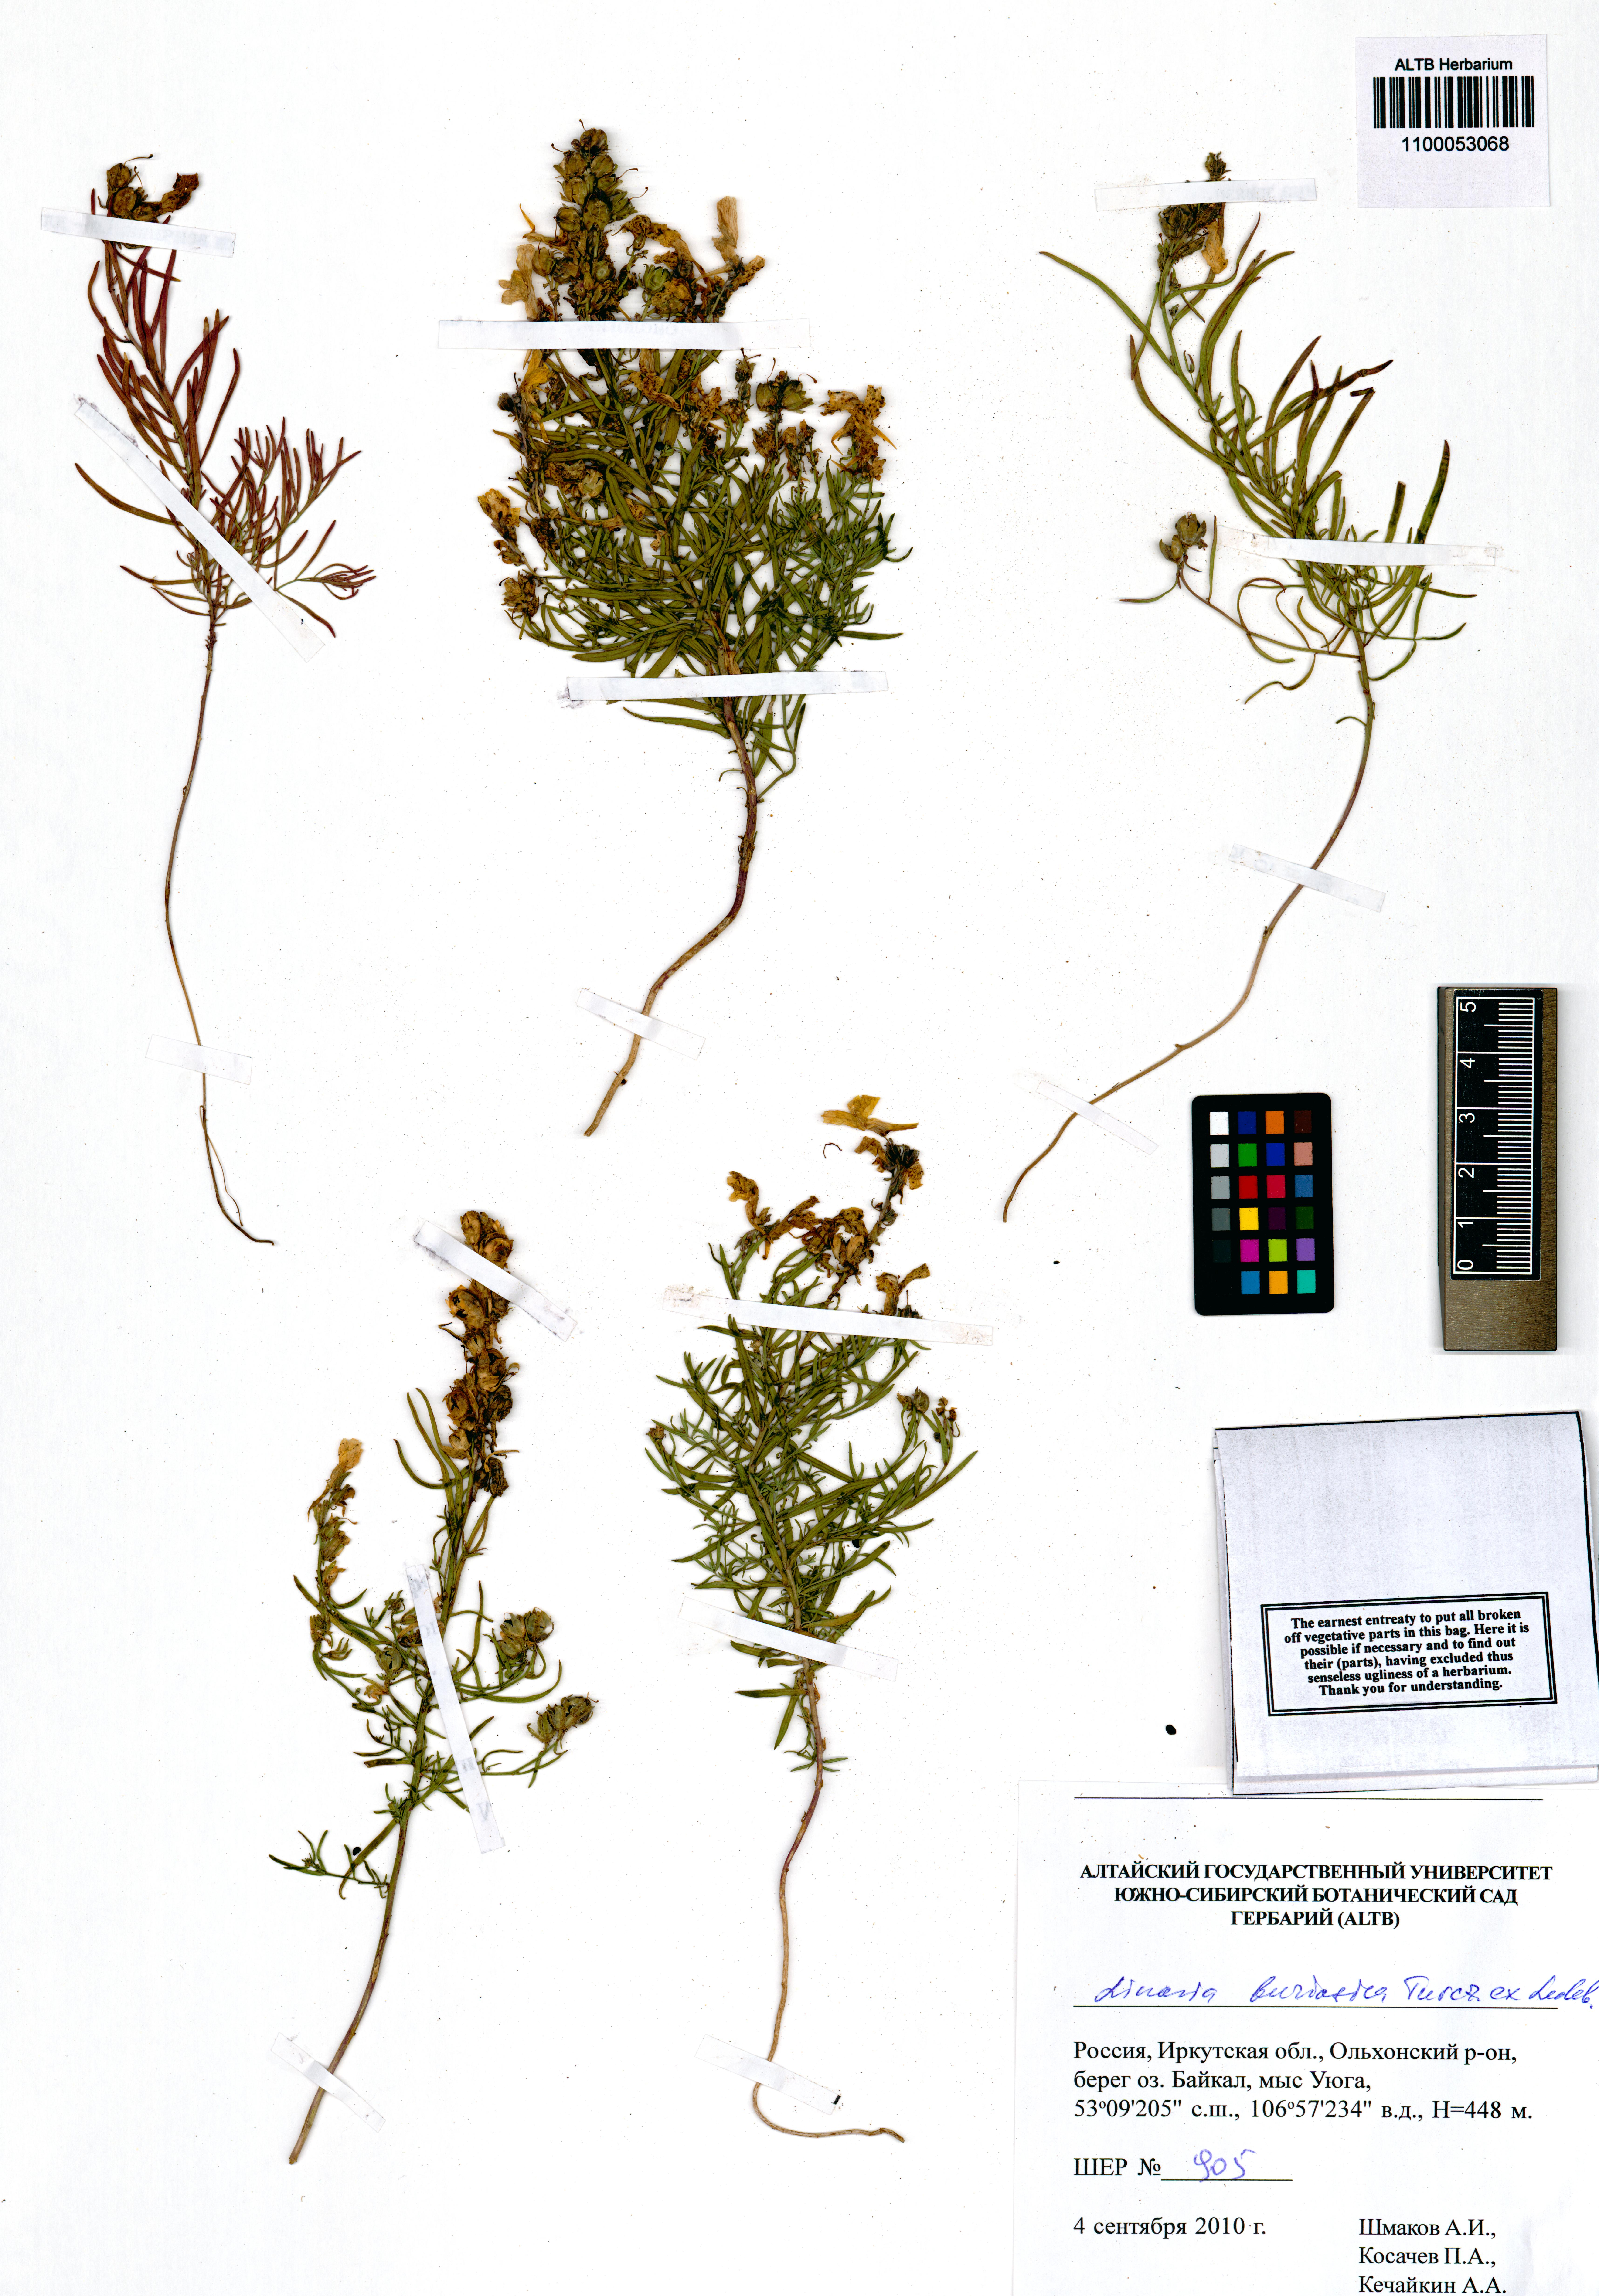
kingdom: Plantae
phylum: Tracheophyta
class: Magnoliopsida
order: Lamiales
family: Plantaginaceae
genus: Linaria
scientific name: Linaria buriatica
